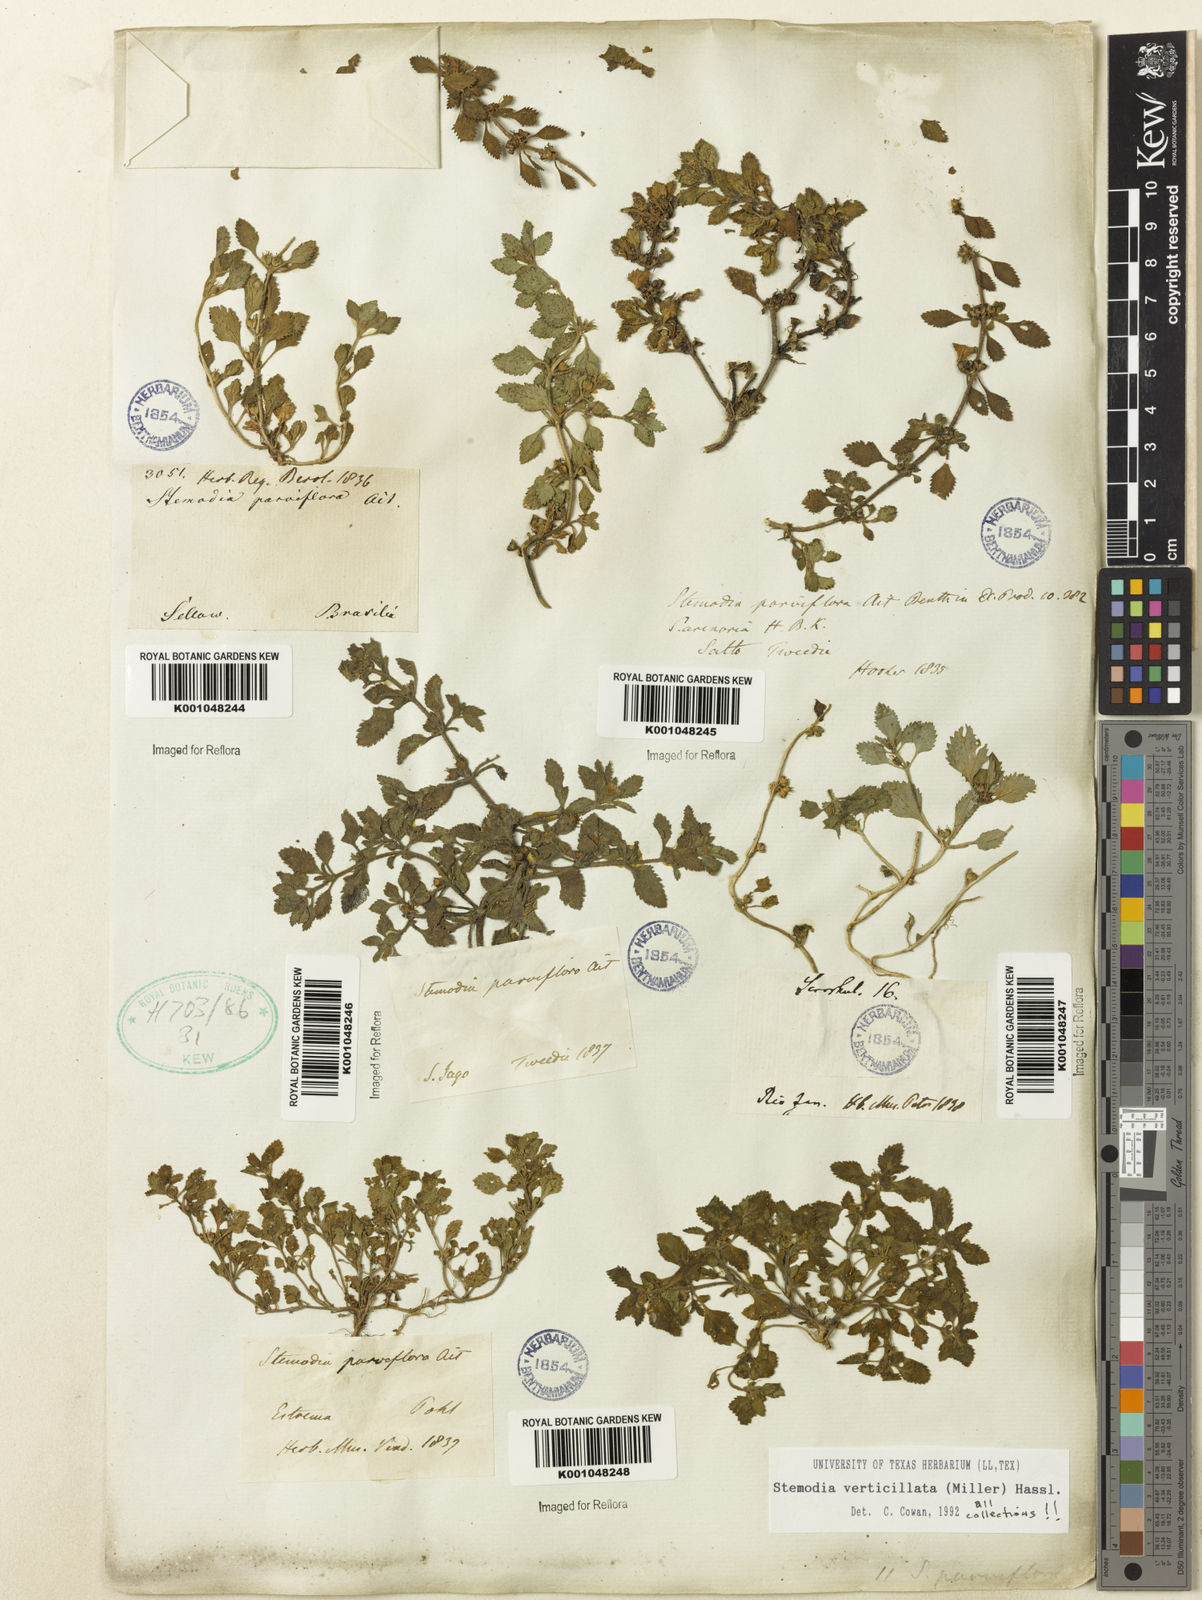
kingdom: Plantae
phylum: Tracheophyta
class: Magnoliopsida
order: Lamiales
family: Plantaginaceae
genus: Stemodia
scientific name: Stemodia verticillata
